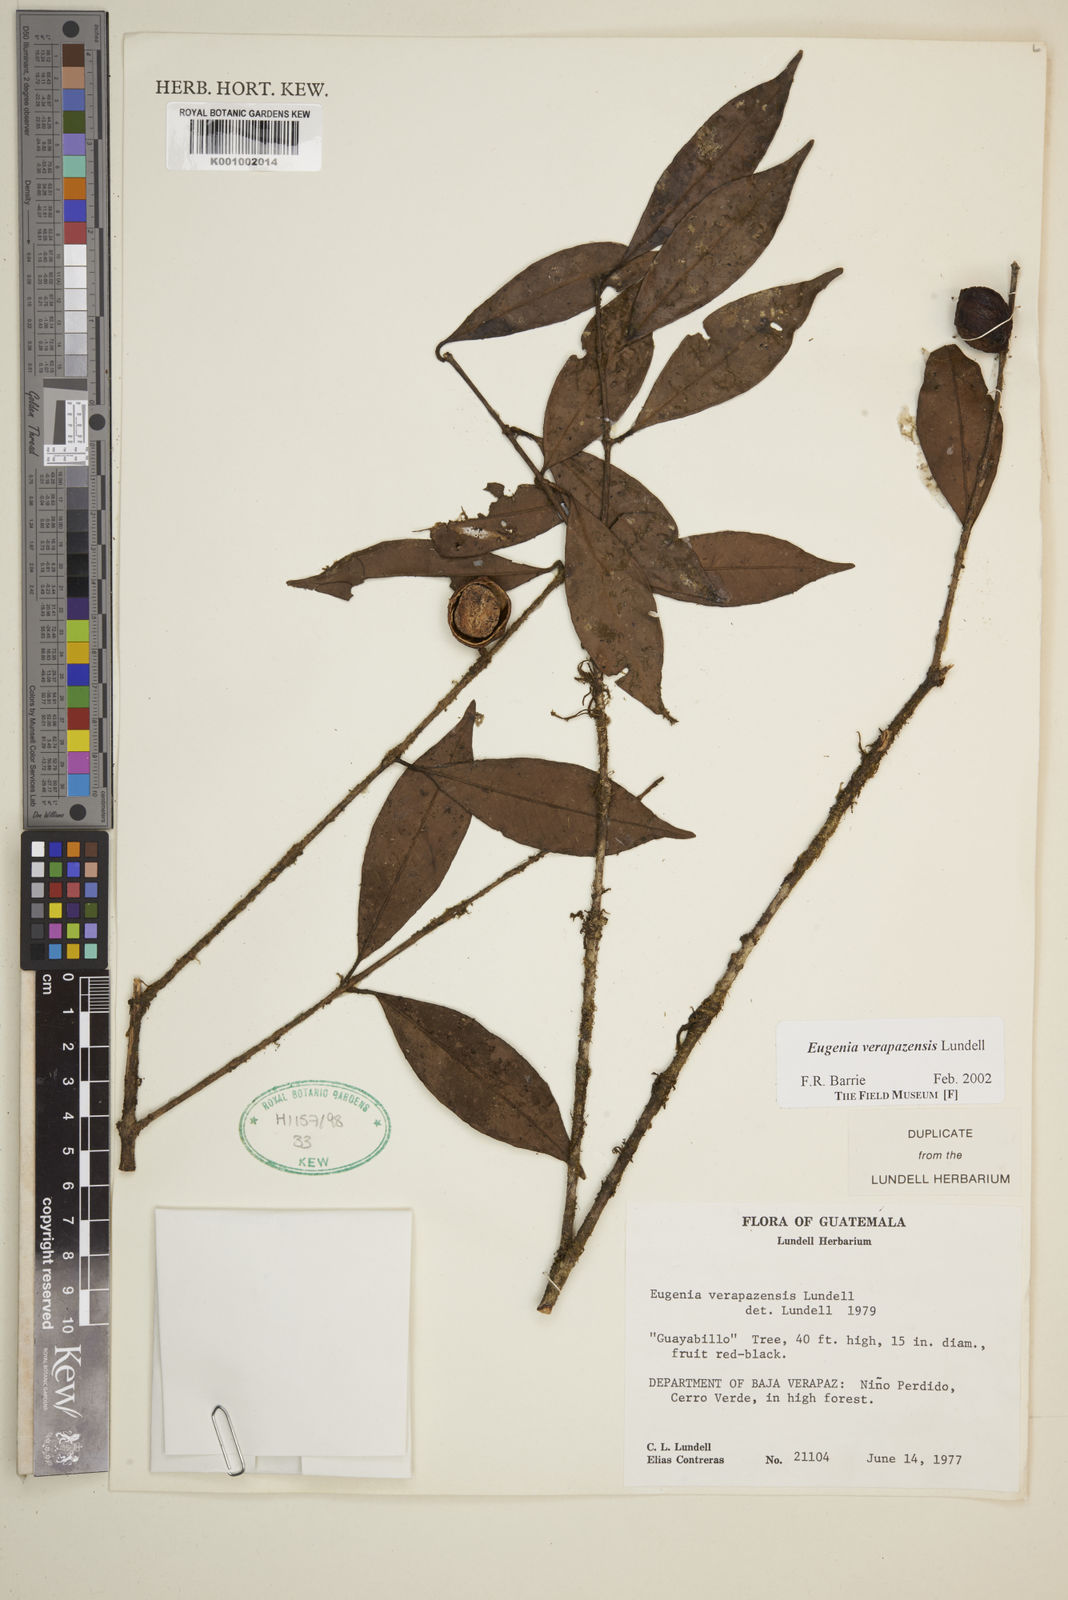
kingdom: Plantae
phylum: Tracheophyta
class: Magnoliopsida
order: Myrtales
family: Myrtaceae
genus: Eugenia
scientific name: Eugenia verapazensis
